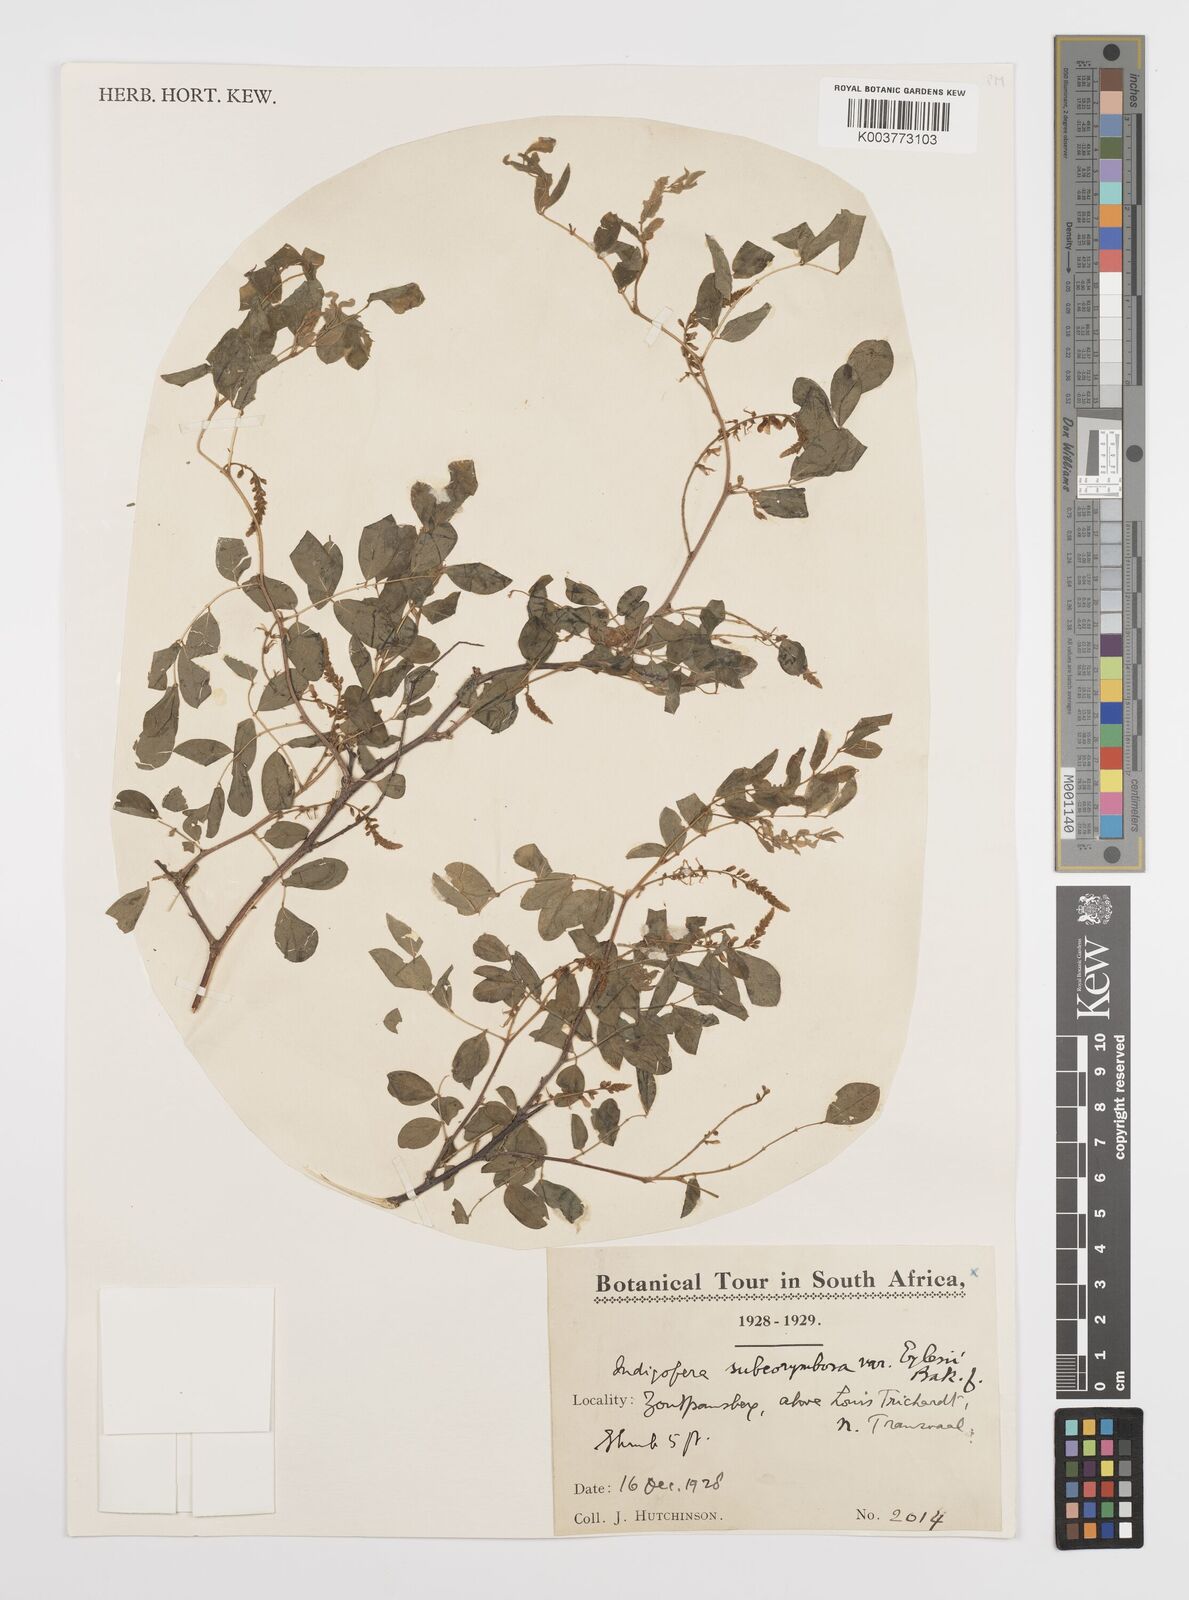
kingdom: Plantae
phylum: Tracheophyta
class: Magnoliopsida
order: Fabales
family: Fabaceae
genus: Indigofera
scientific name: Indigofera subcorymbosa
